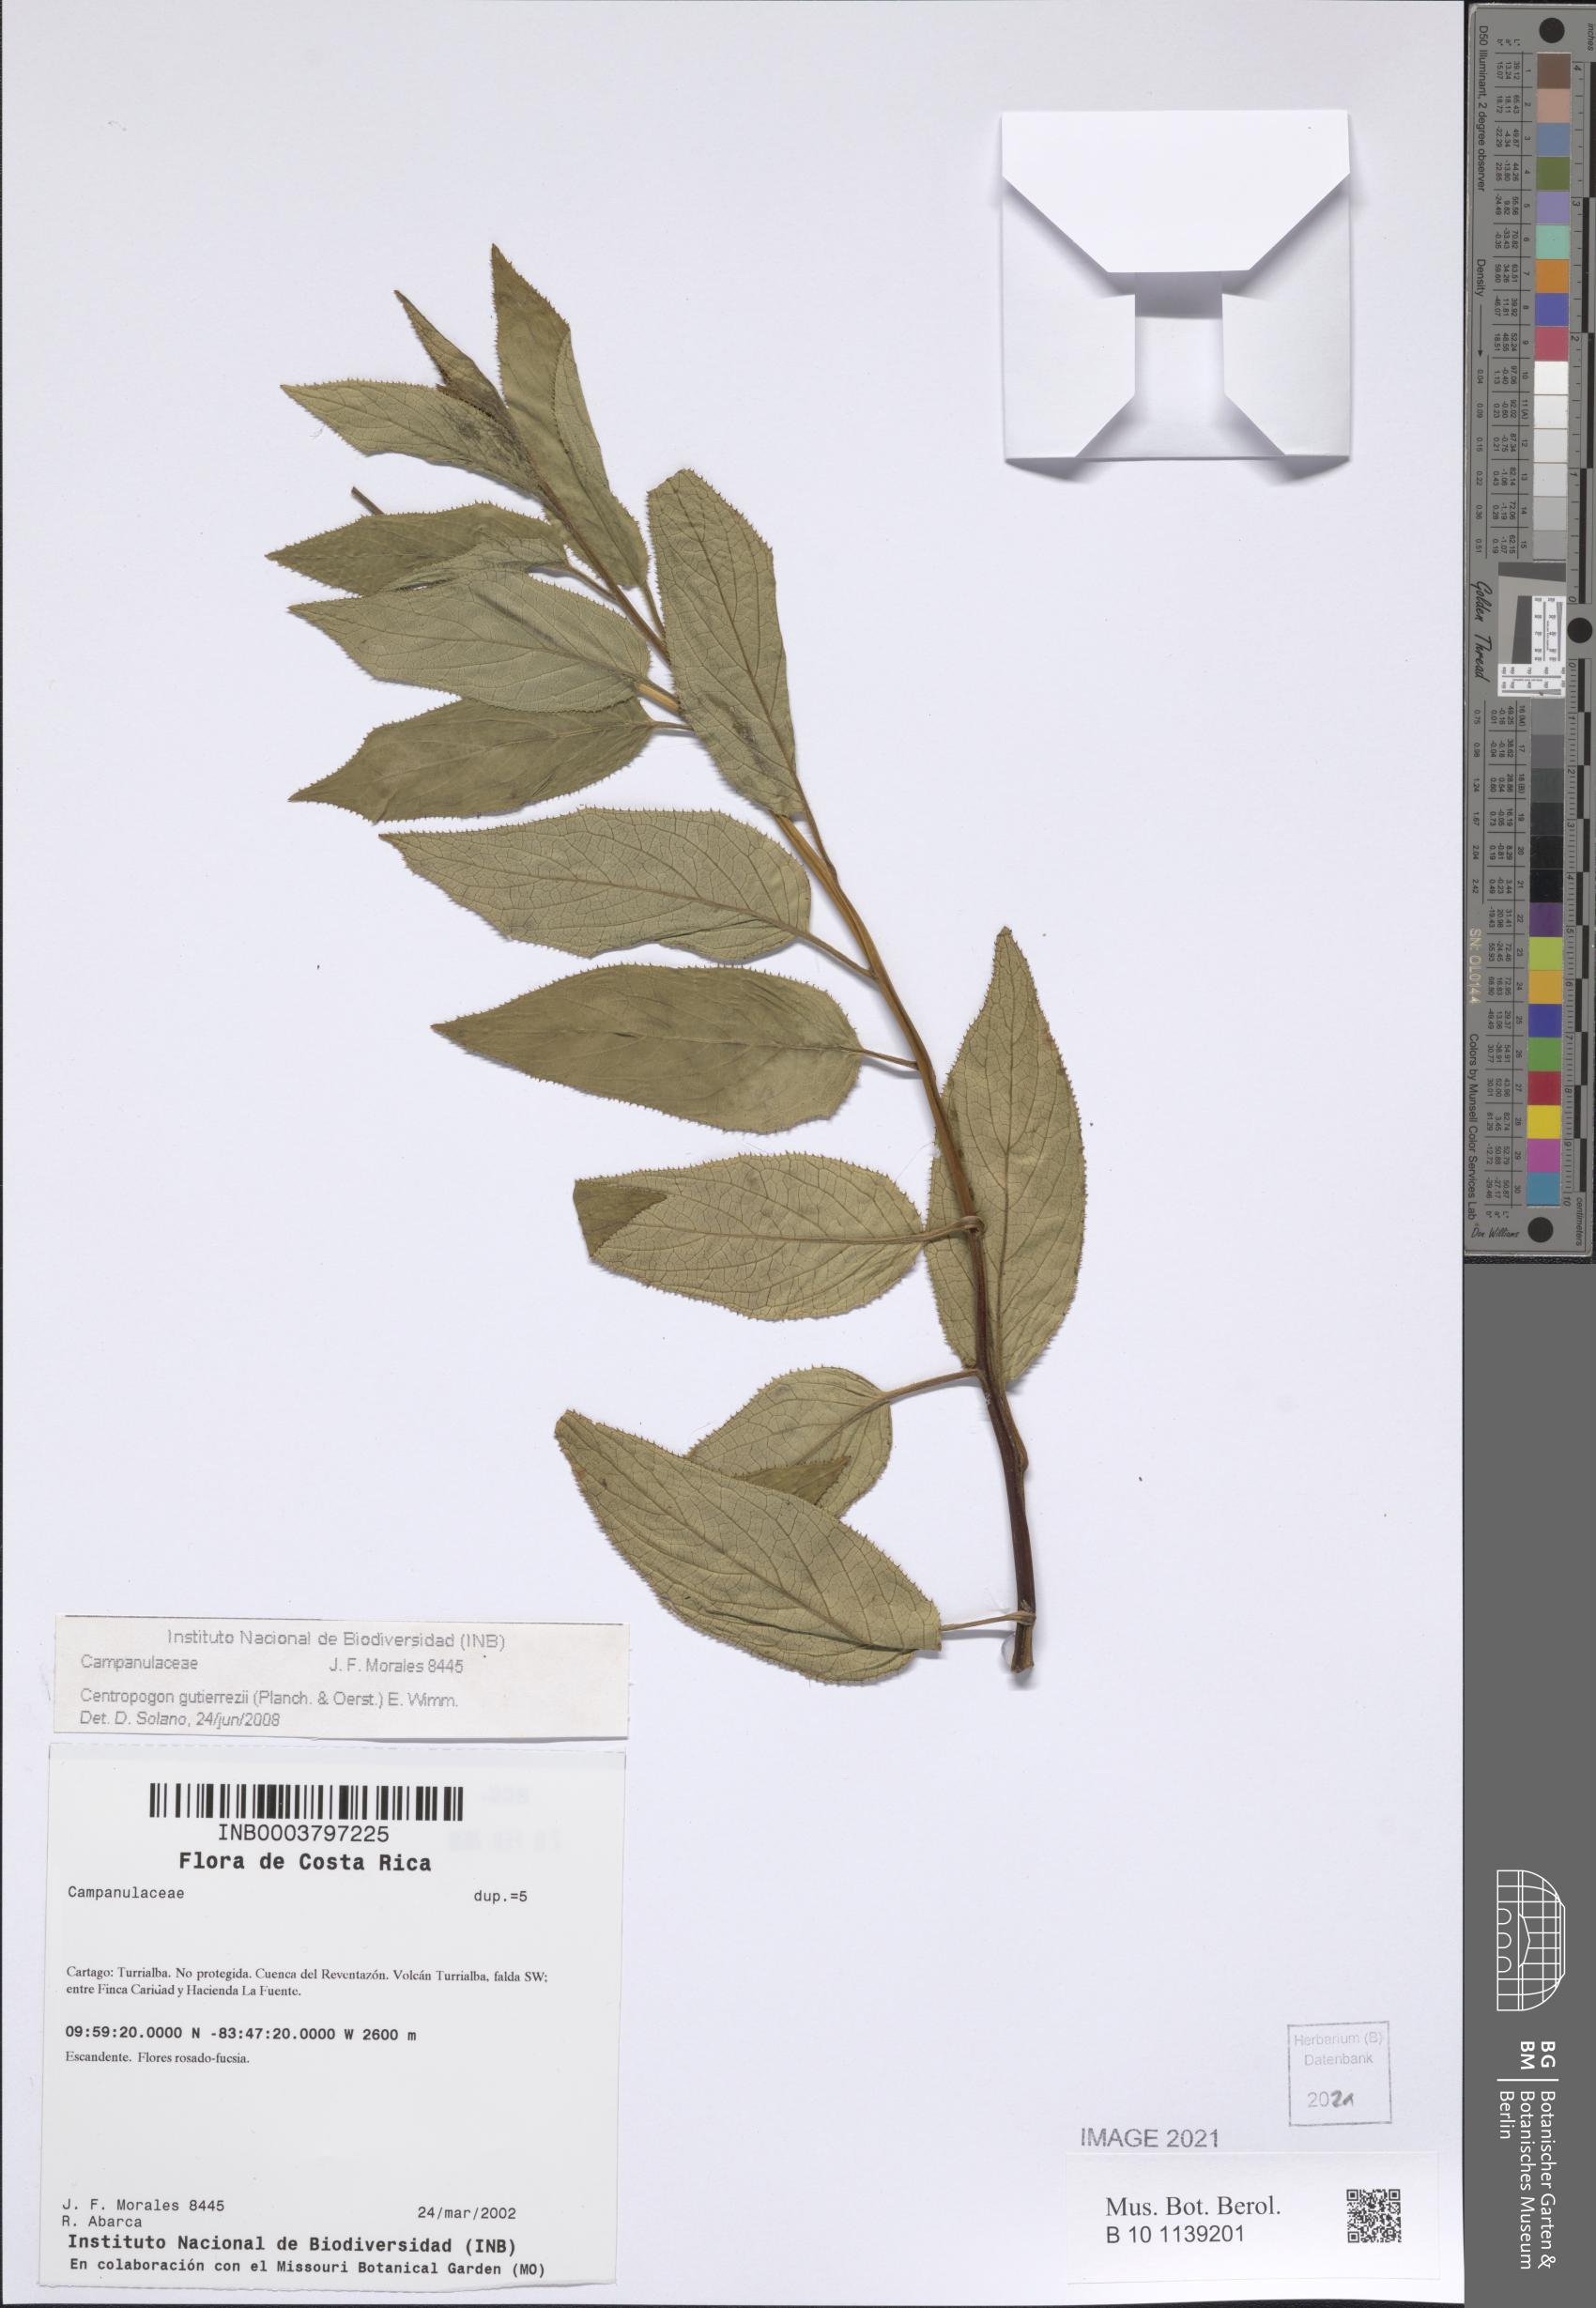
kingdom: Plantae
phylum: Tracheophyta
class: Magnoliopsida
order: Asterales
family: Campanulaceae
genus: Centropogon
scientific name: Centropogon gutierrezii
